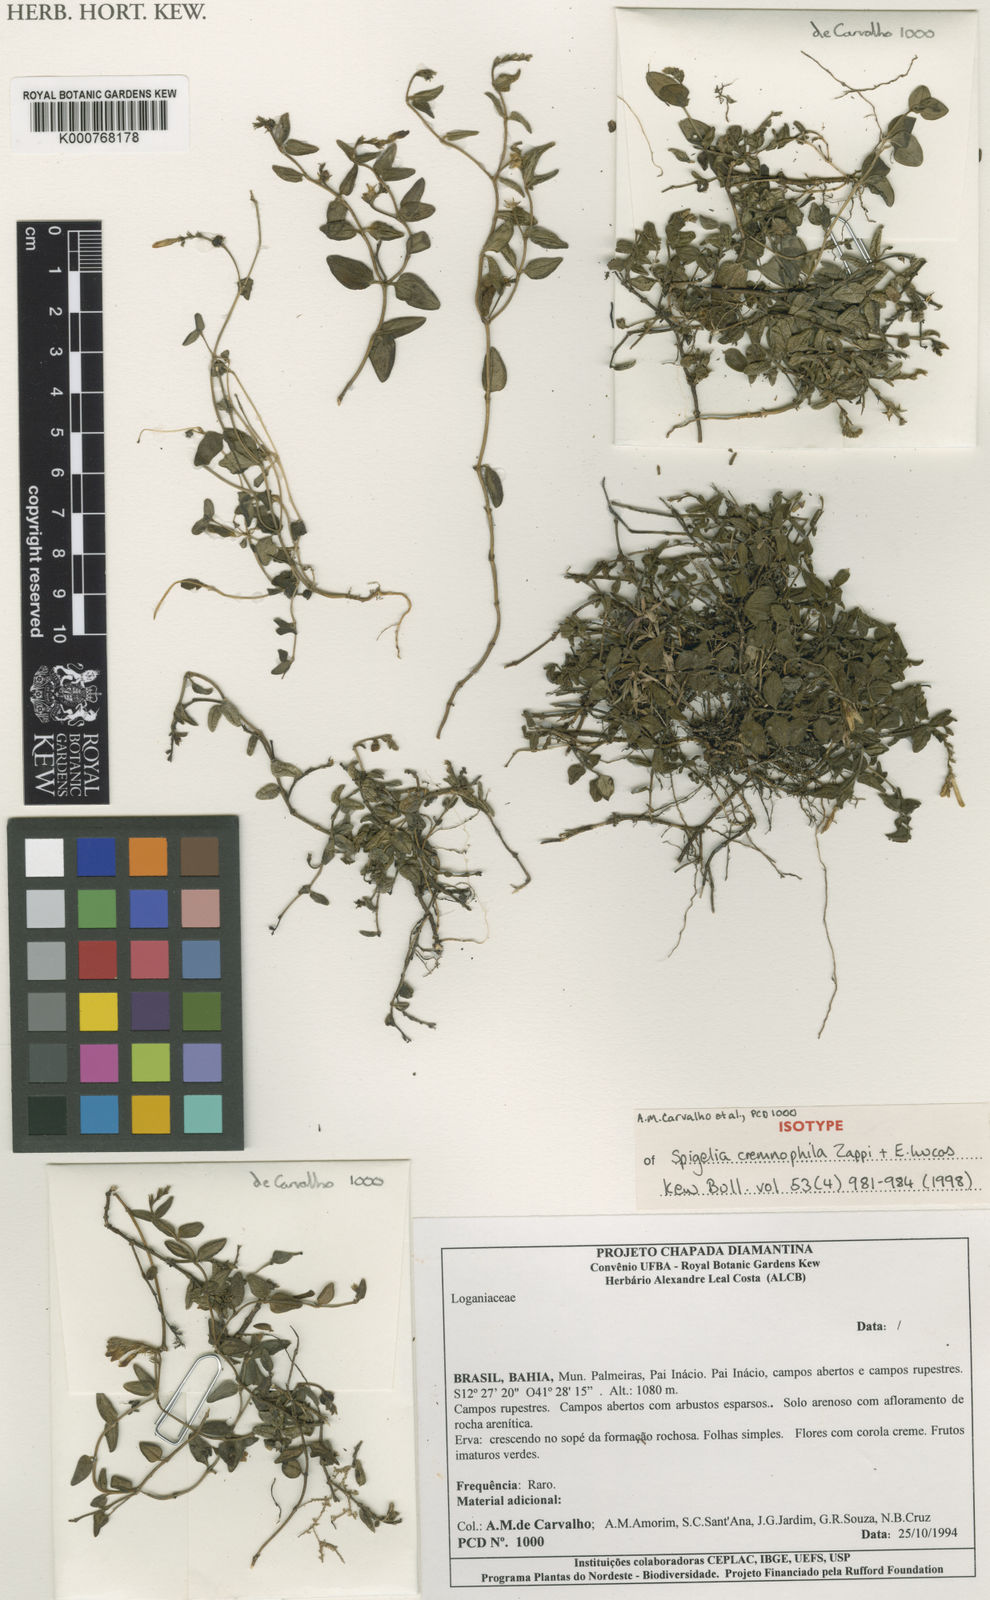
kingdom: Plantae
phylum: Tracheophyta
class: Magnoliopsida
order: Gentianales
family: Loganiaceae
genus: Spigelia
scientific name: Spigelia cremnophila
